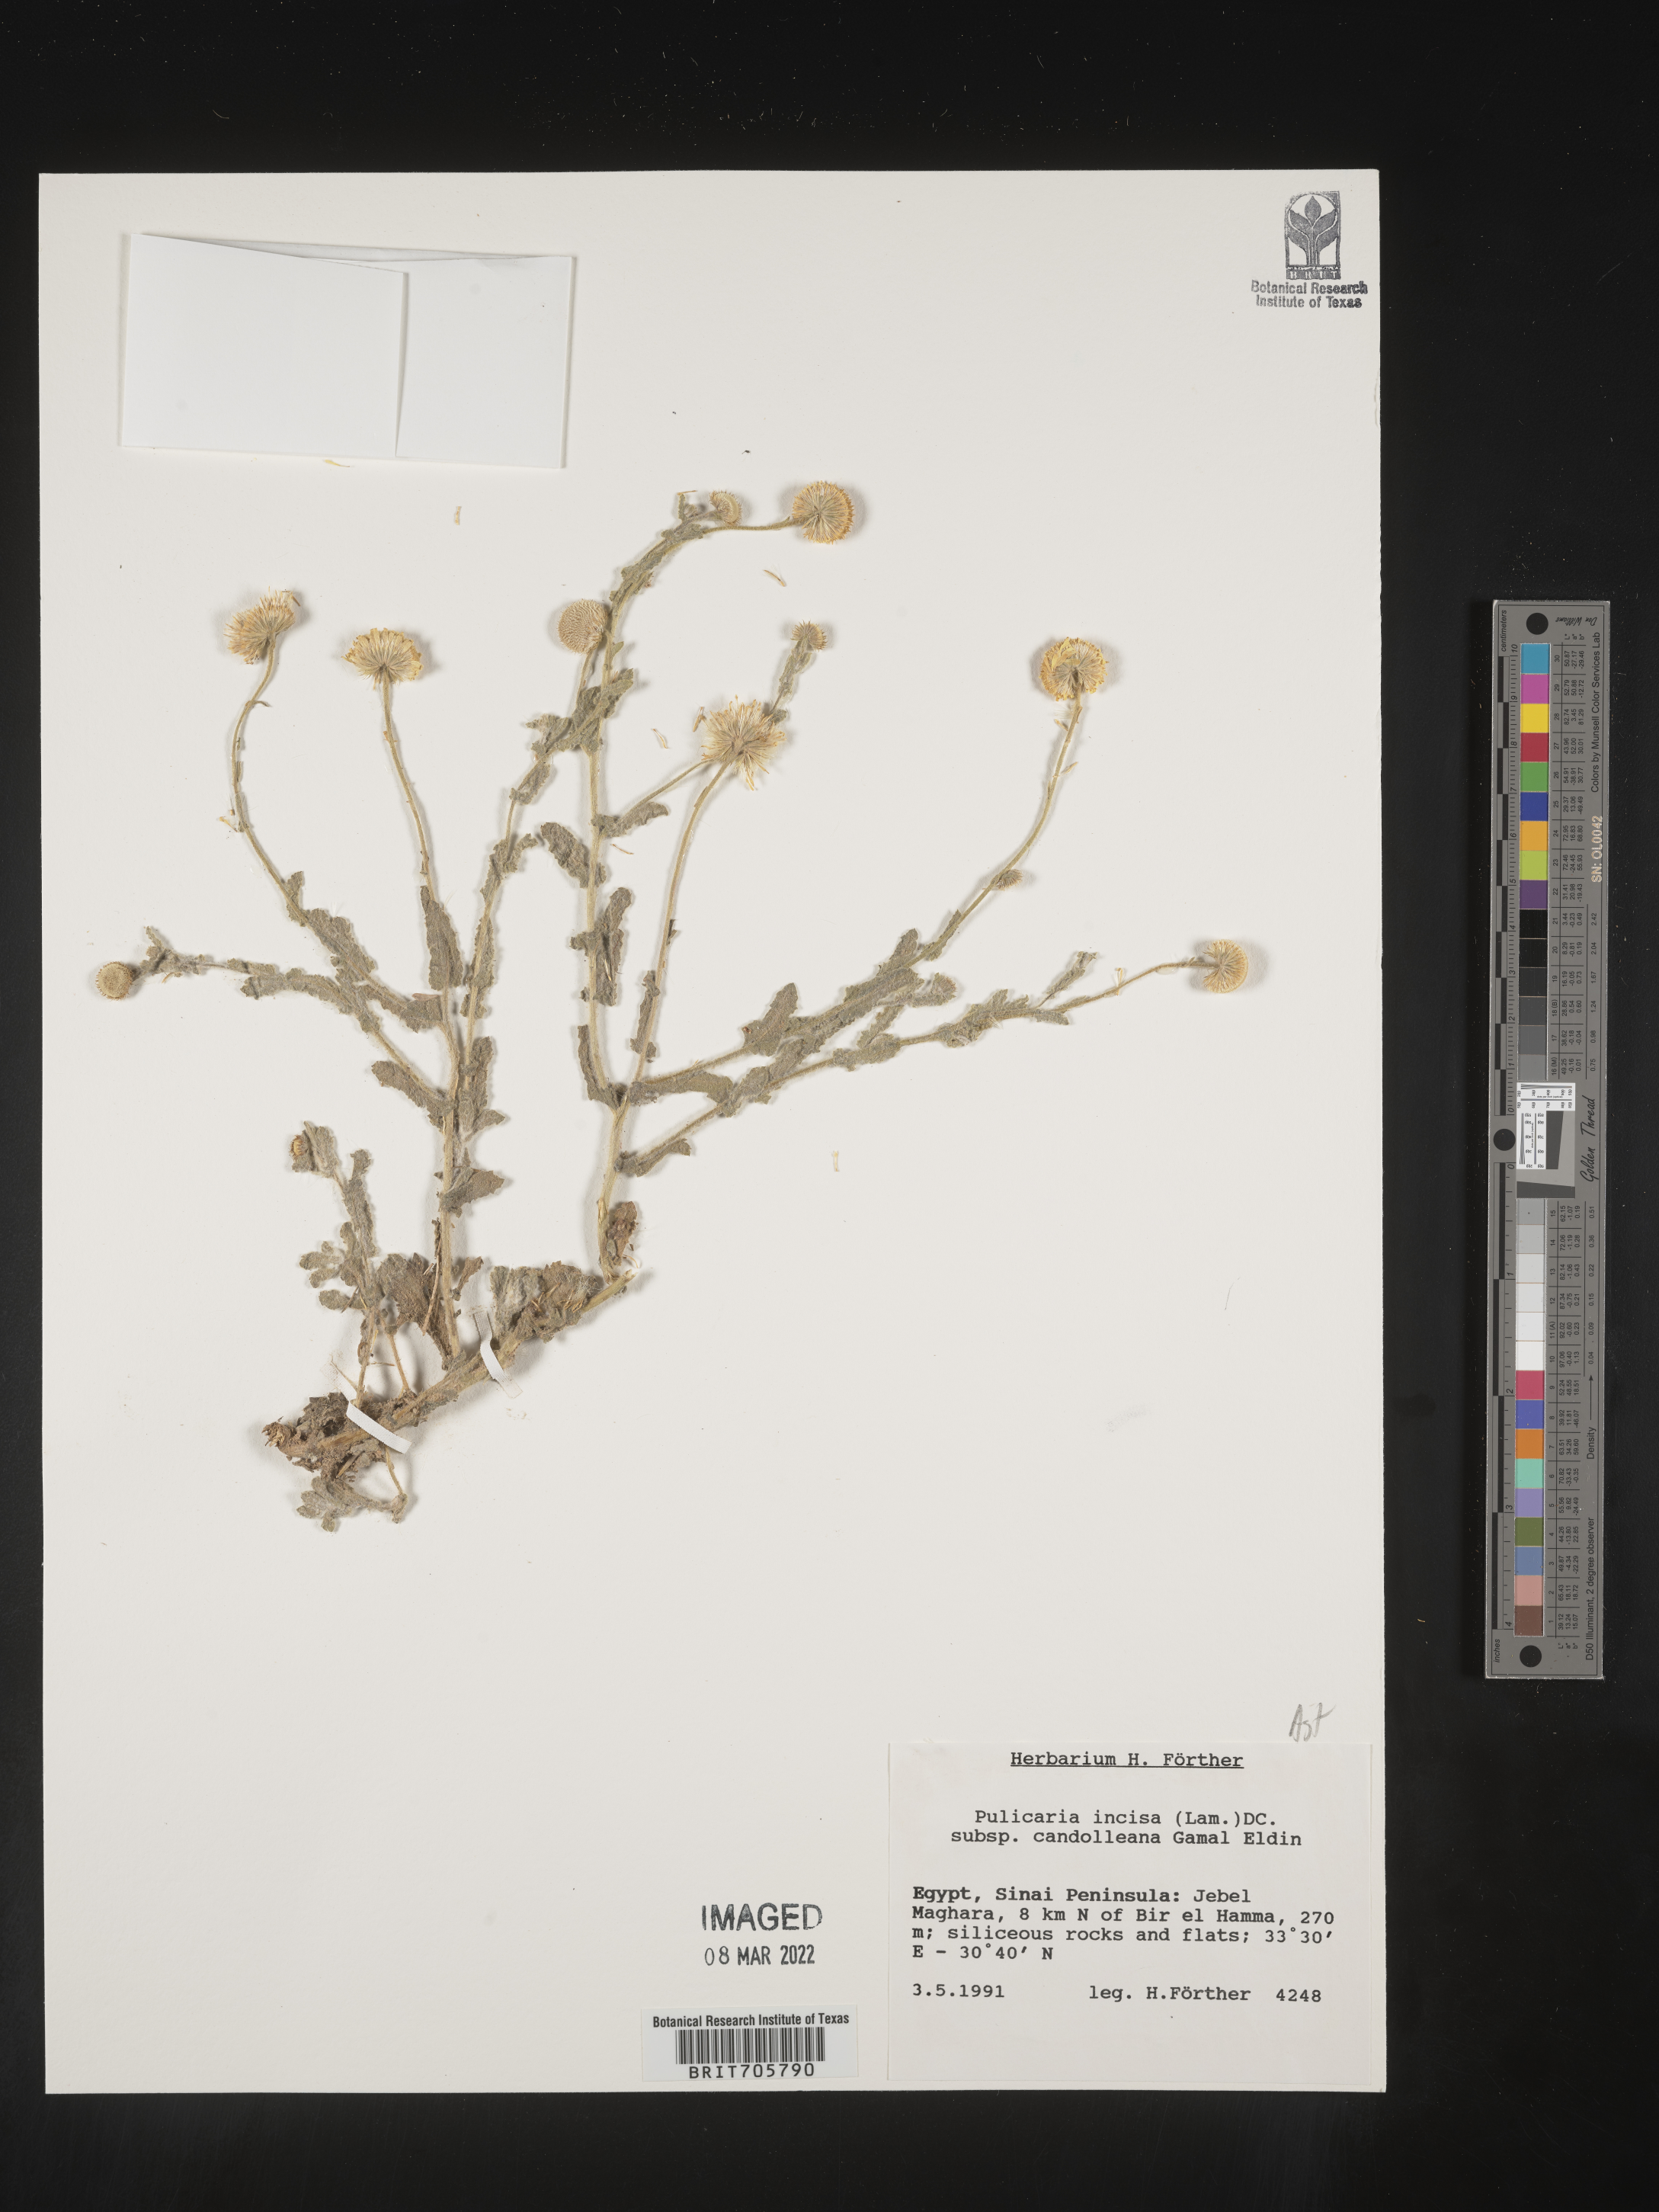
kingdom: Plantae
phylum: Tracheophyta
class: Magnoliopsida
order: Asterales
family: Asteraceae
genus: Pulicaria
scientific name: Pulicaria
